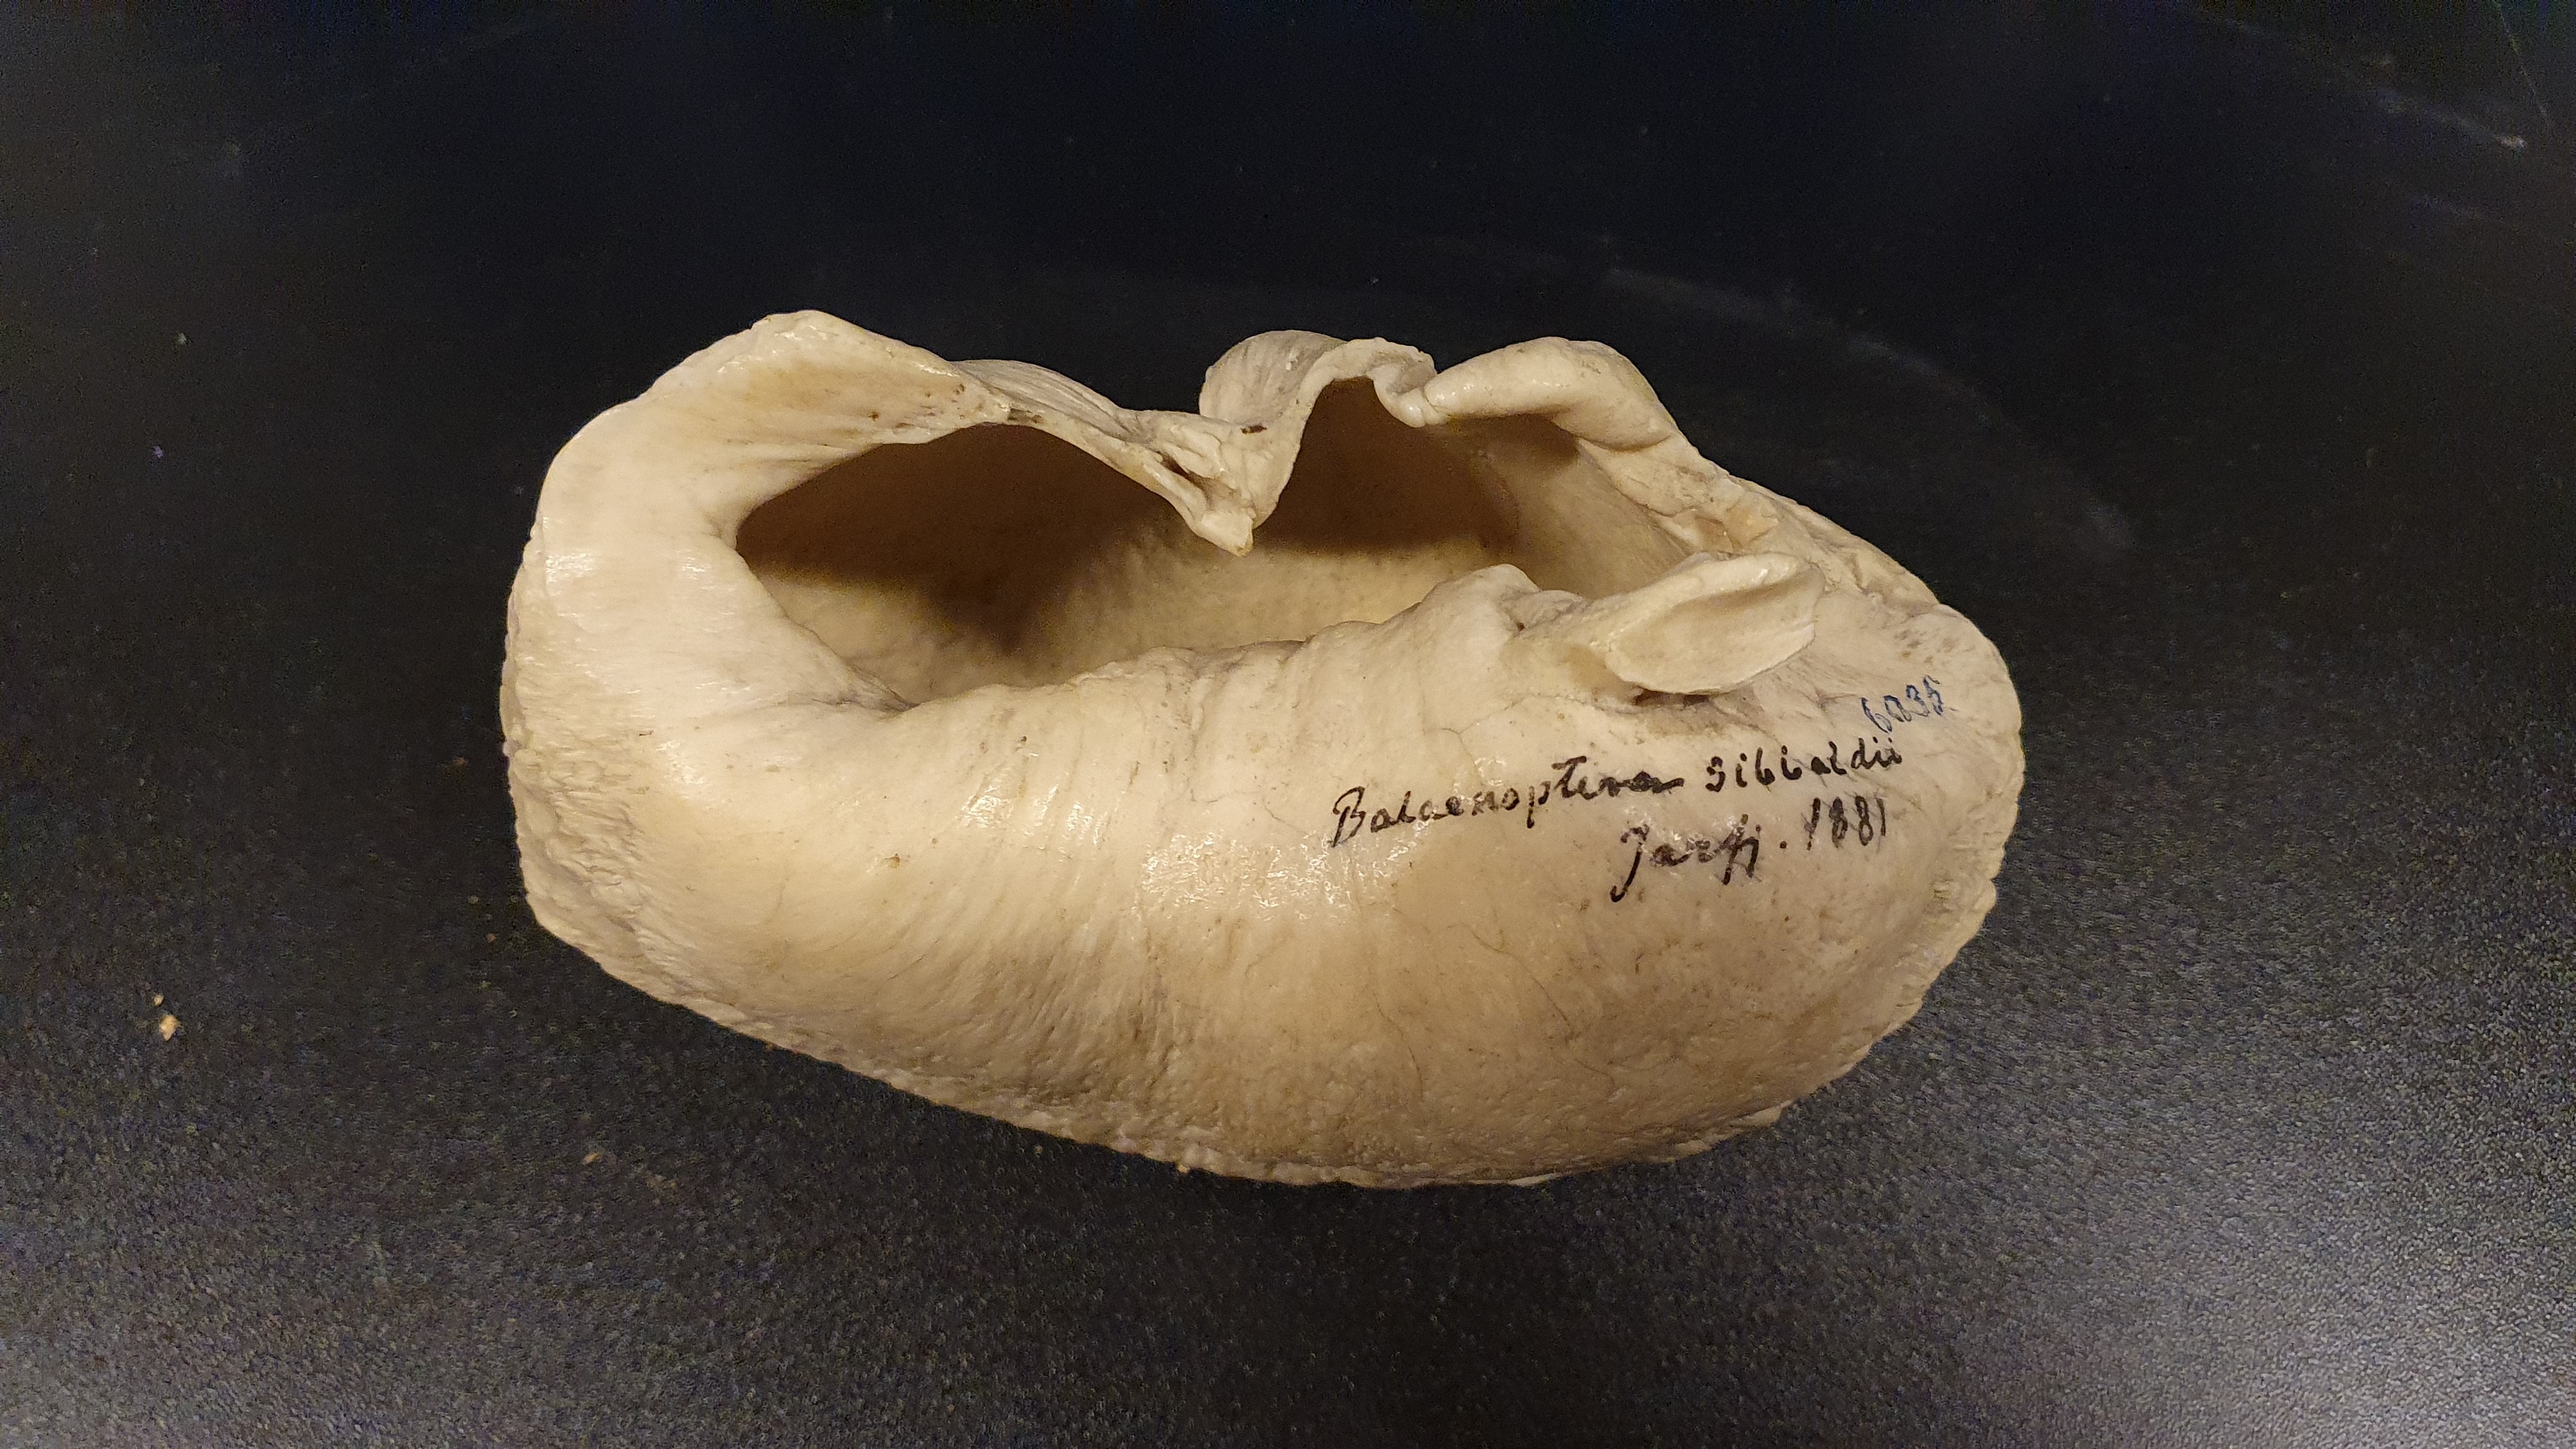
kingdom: Animalia
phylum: Chordata
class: Mammalia
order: Cetacea
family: Balaenopteridae
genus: Balaenoptera
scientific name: Balaenoptera musculus
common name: Blue whale
